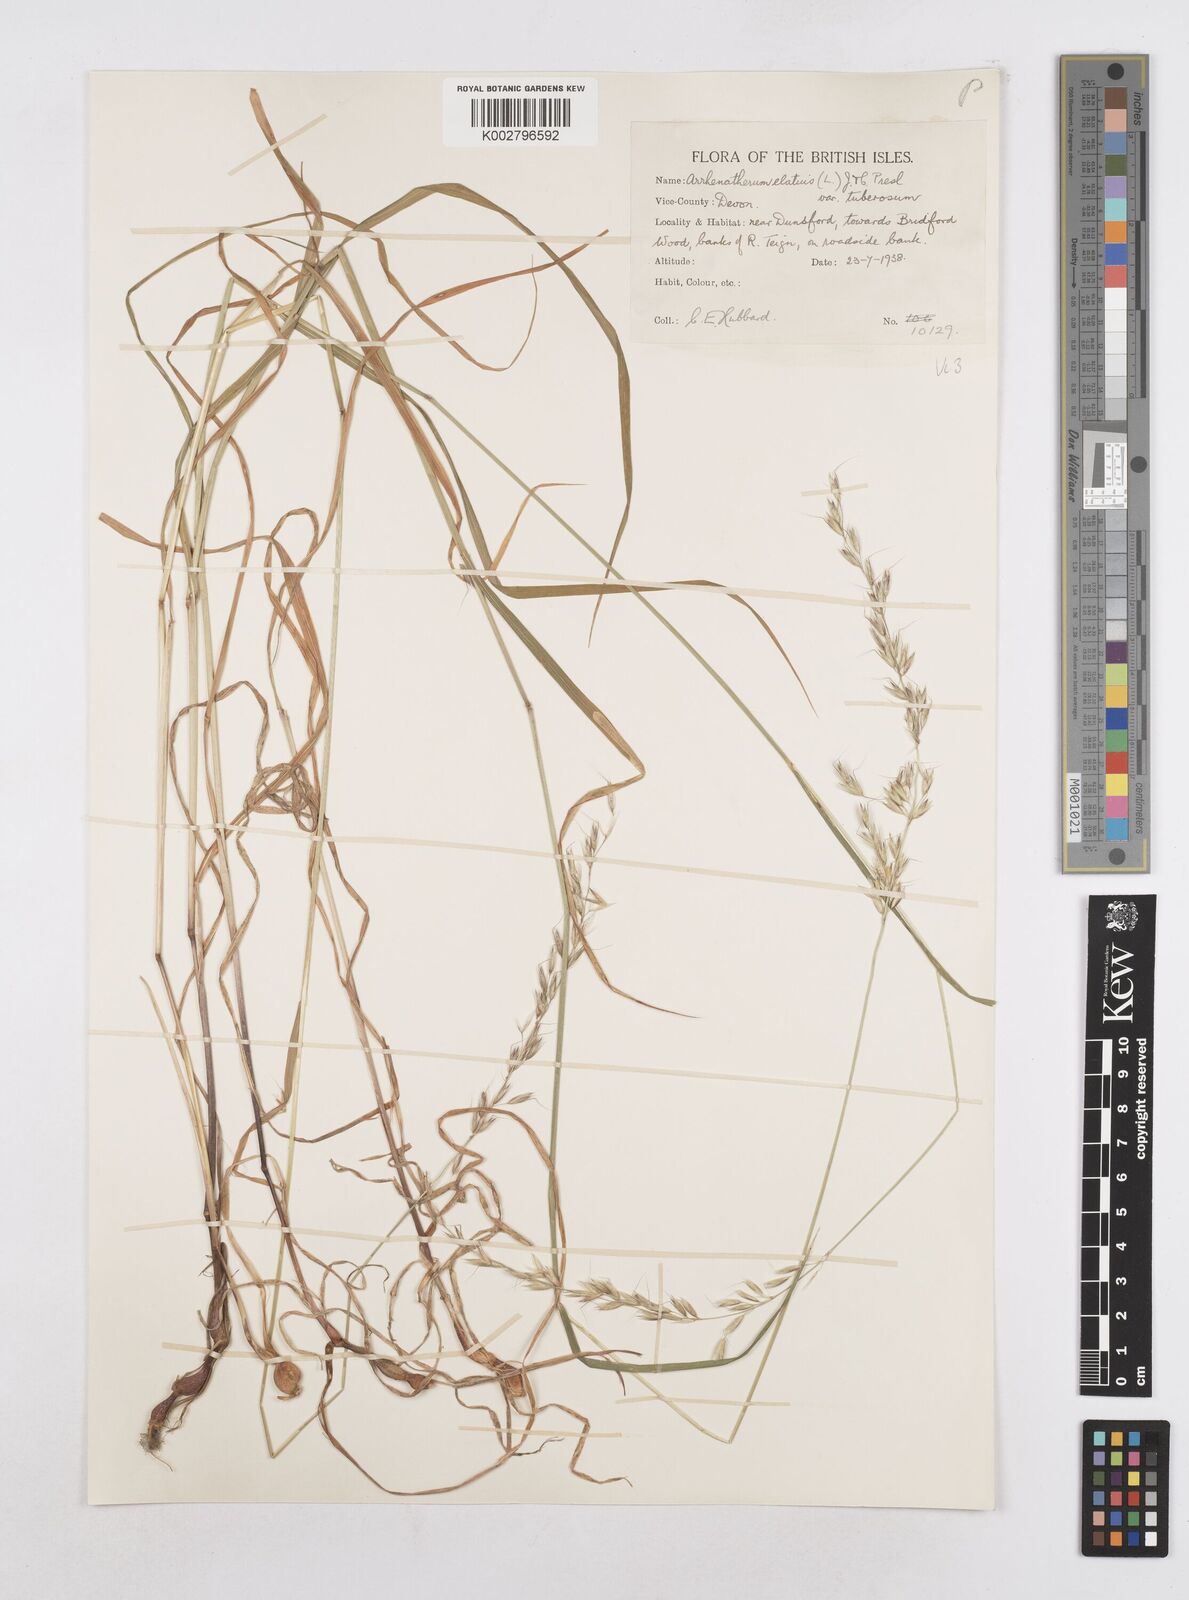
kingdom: Plantae
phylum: Tracheophyta
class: Liliopsida
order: Poales
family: Poaceae
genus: Arrhenatherum
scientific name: Arrhenatherum elatius
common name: Tall oatgrass
